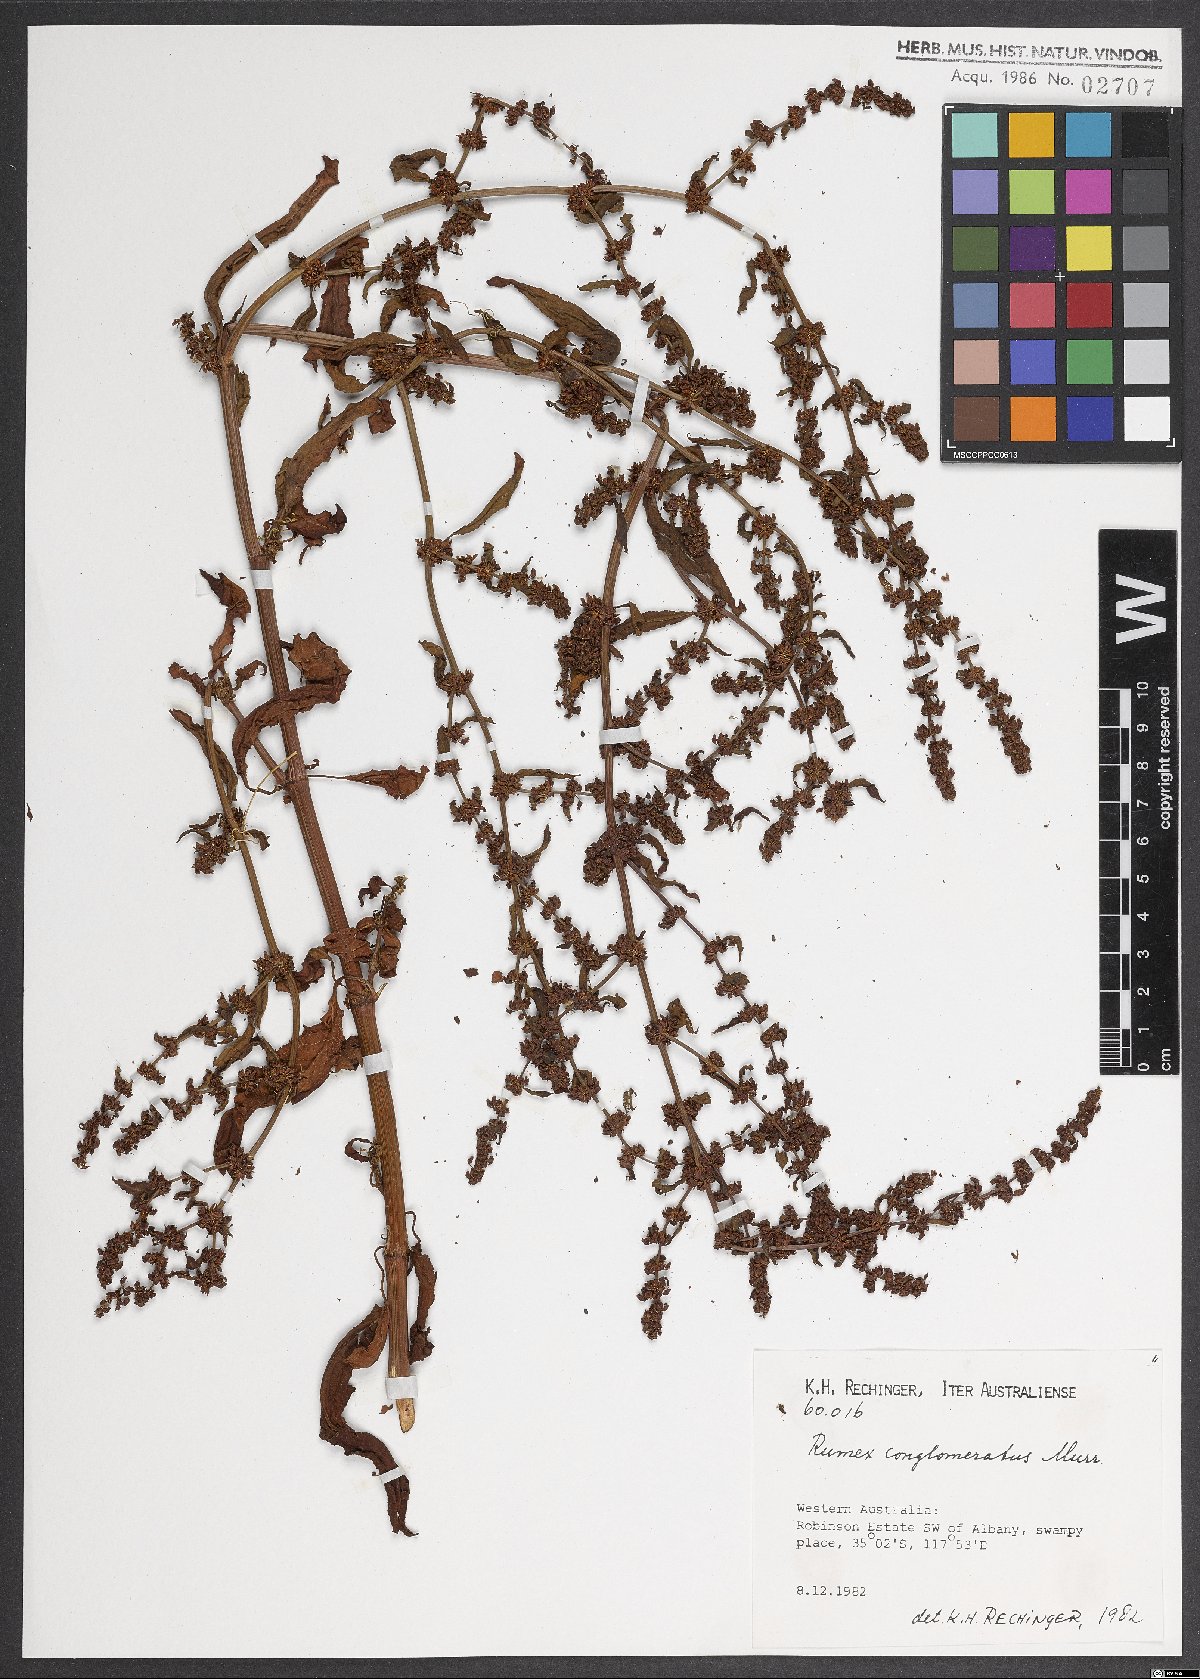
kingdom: Plantae
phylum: Tracheophyta
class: Magnoliopsida
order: Caryophyllales
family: Polygonaceae
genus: Rumex
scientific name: Rumex conglomeratus
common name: Clustered dock
